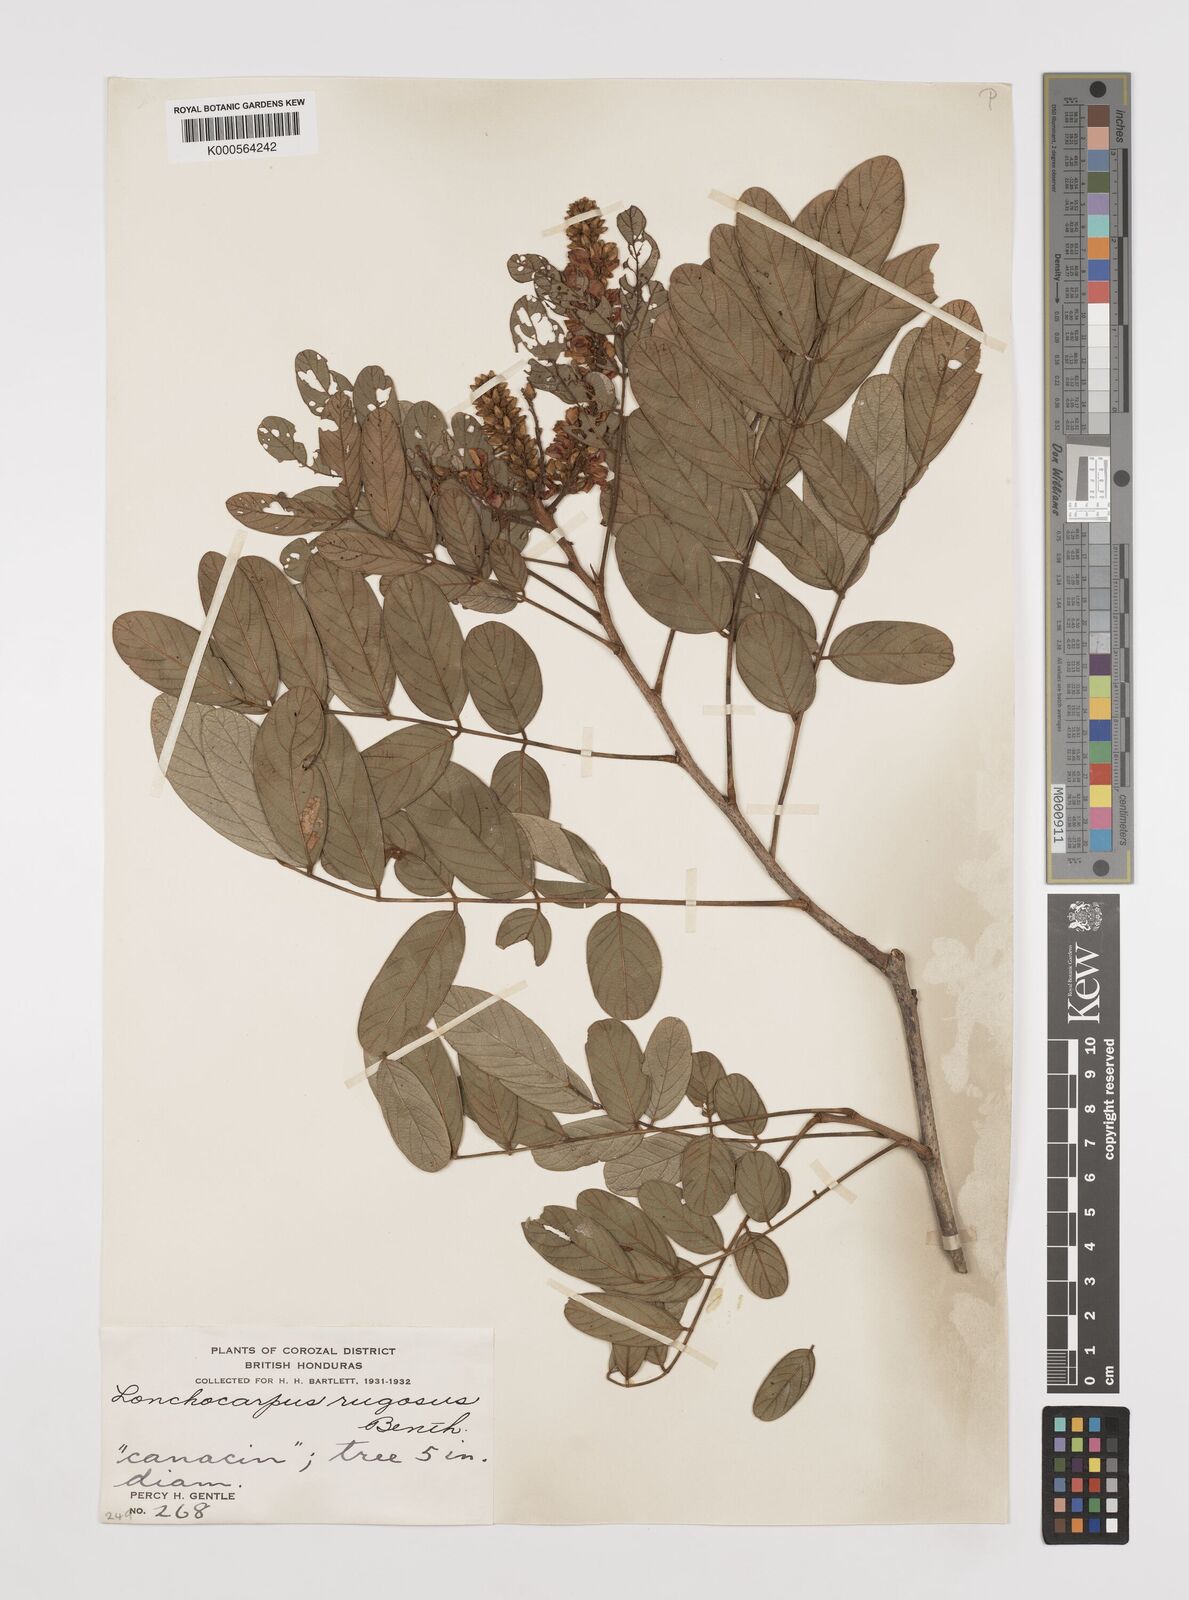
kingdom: Plantae
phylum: Tracheophyta
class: Magnoliopsida
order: Fabales
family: Fabaceae
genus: Lonchocarpus
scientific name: Lonchocarpus rugosus
